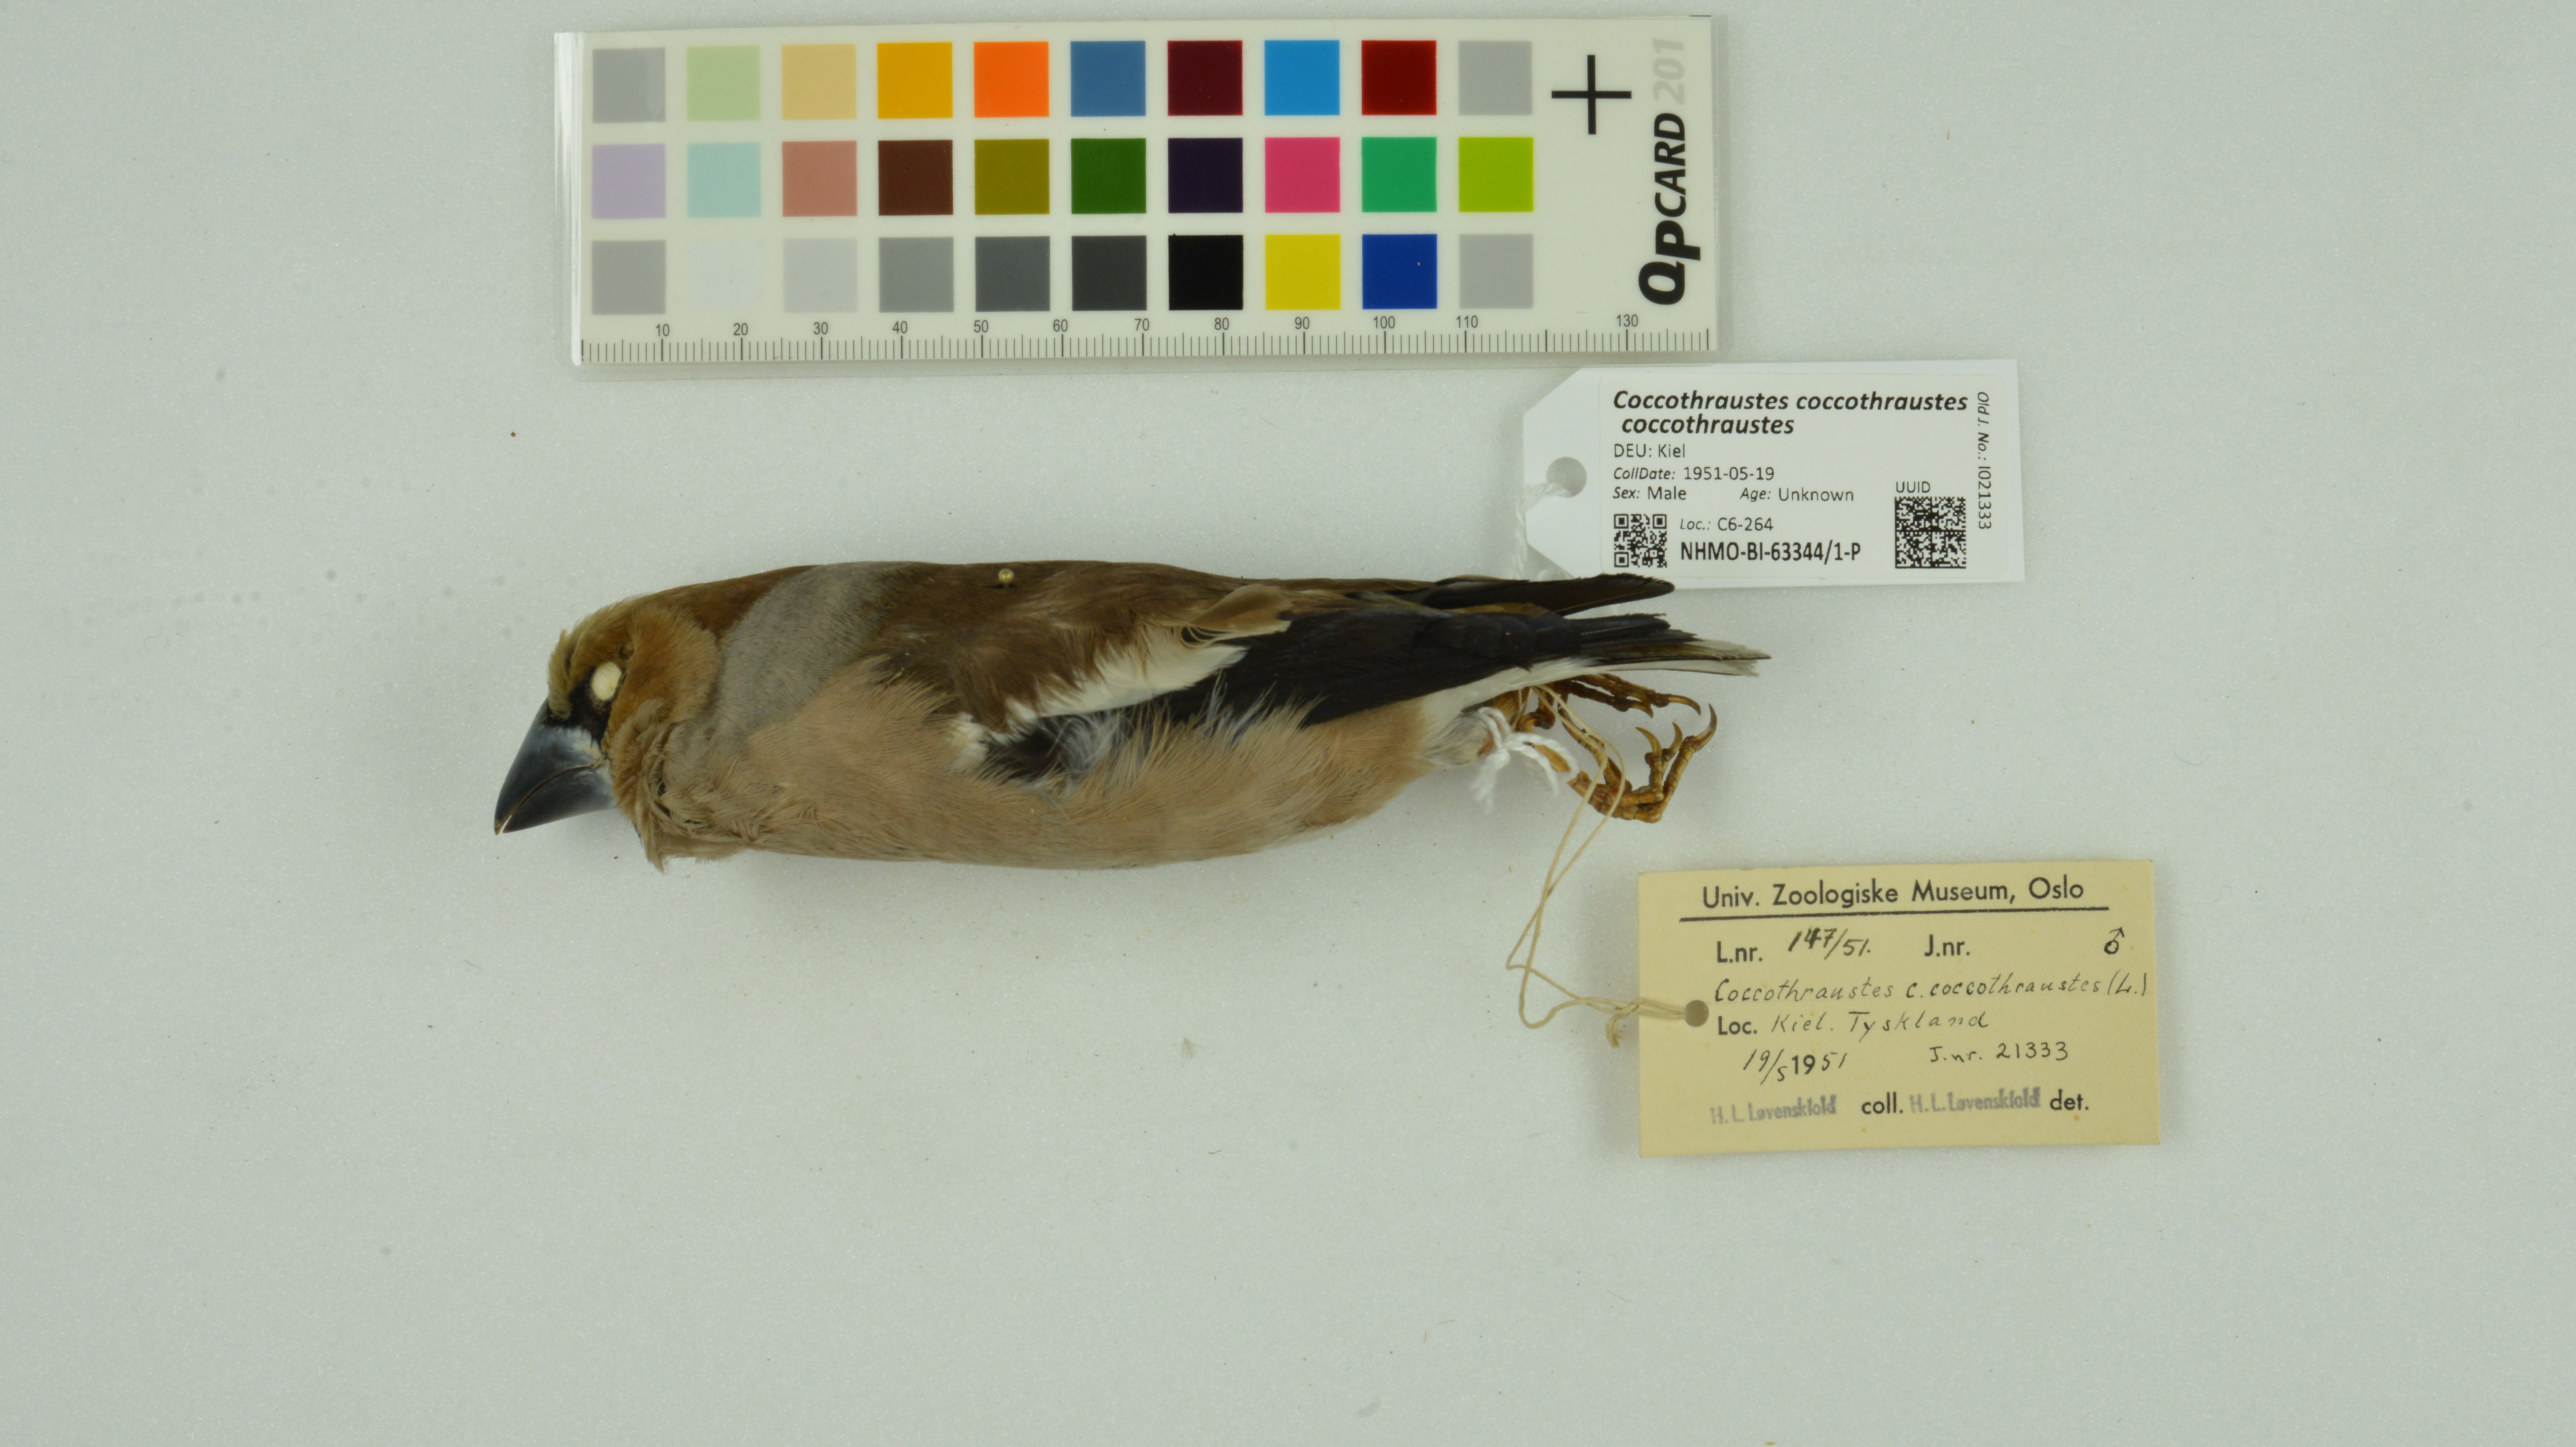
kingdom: Animalia
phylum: Chordata
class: Aves
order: Passeriformes
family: Fringillidae
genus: Coccothraustes
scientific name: Coccothraustes coccothraustes
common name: Hawfinch
